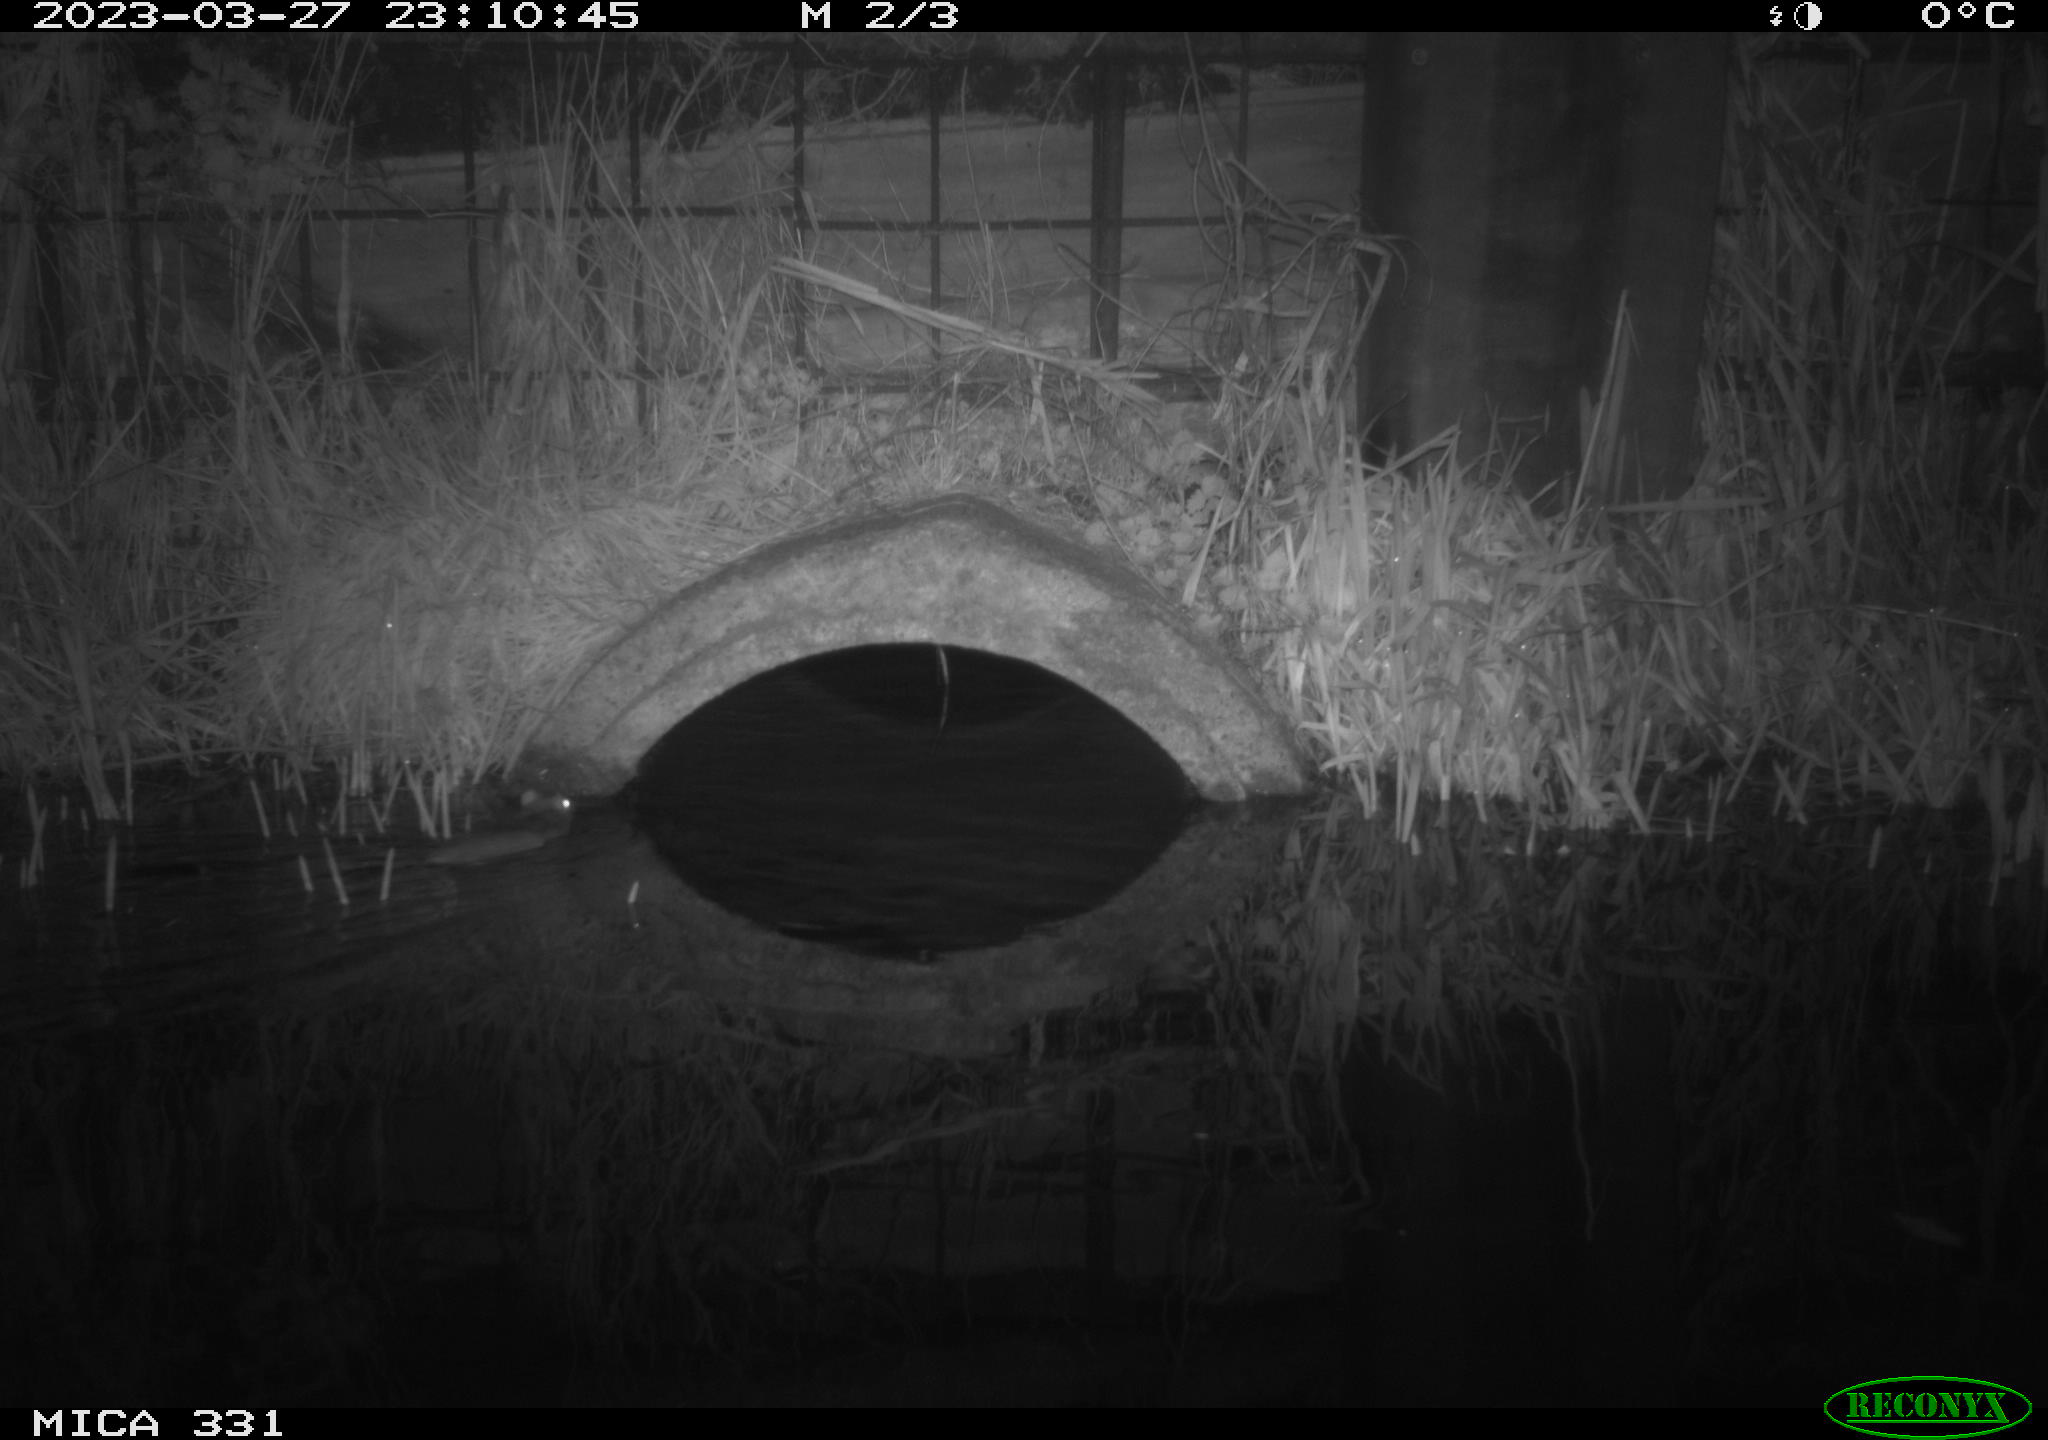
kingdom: Animalia
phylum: Chordata
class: Mammalia
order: Rodentia
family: Muridae
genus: Rattus
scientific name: Rattus norvegicus
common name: Brown rat
